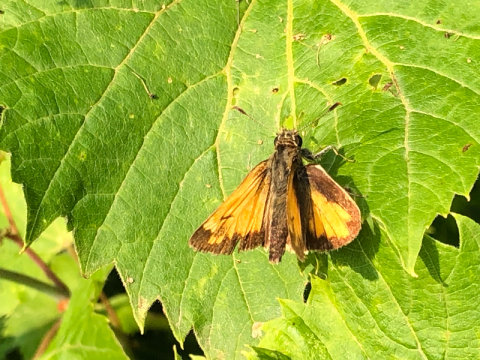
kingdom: Animalia
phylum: Arthropoda
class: Insecta
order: Lepidoptera
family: Hesperiidae
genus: Lon
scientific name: Lon hobomok
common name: Hobomok Skipper
